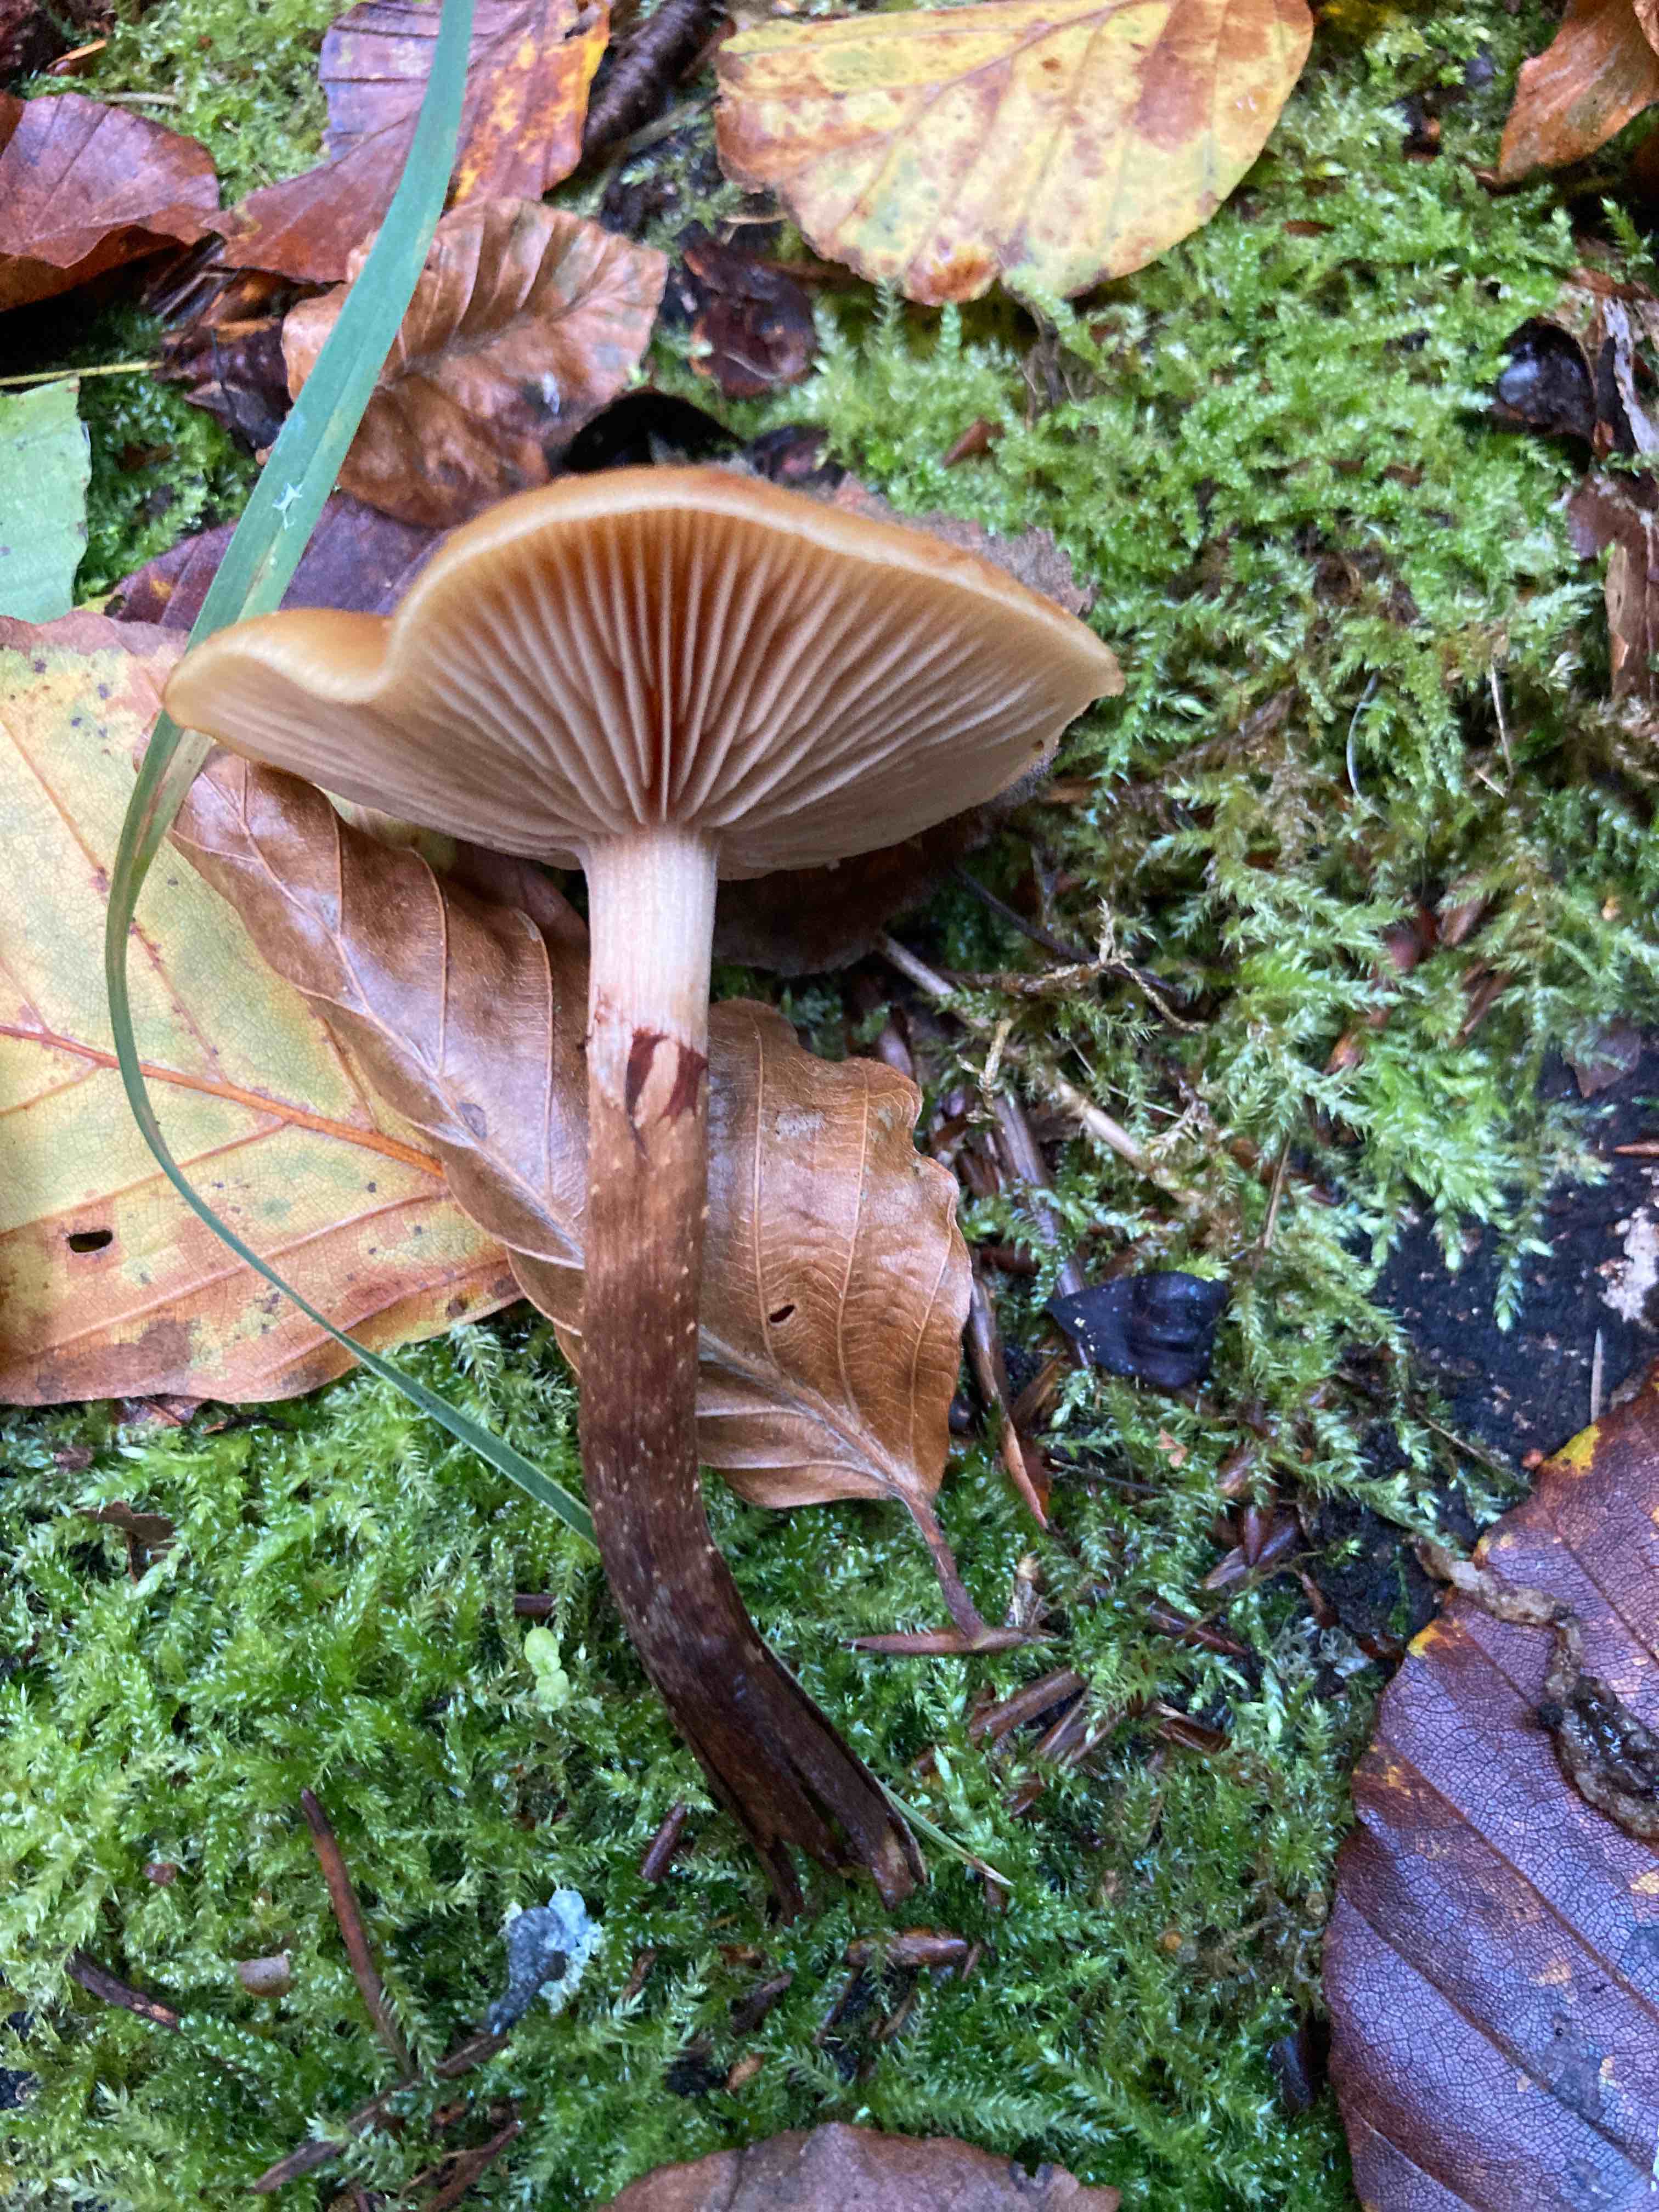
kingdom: Fungi
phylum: Basidiomycota
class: Agaricomycetes
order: Agaricales
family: Strophariaceae
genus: Kuehneromyces
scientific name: Kuehneromyces mutabilis
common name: foranderlig skælhat
